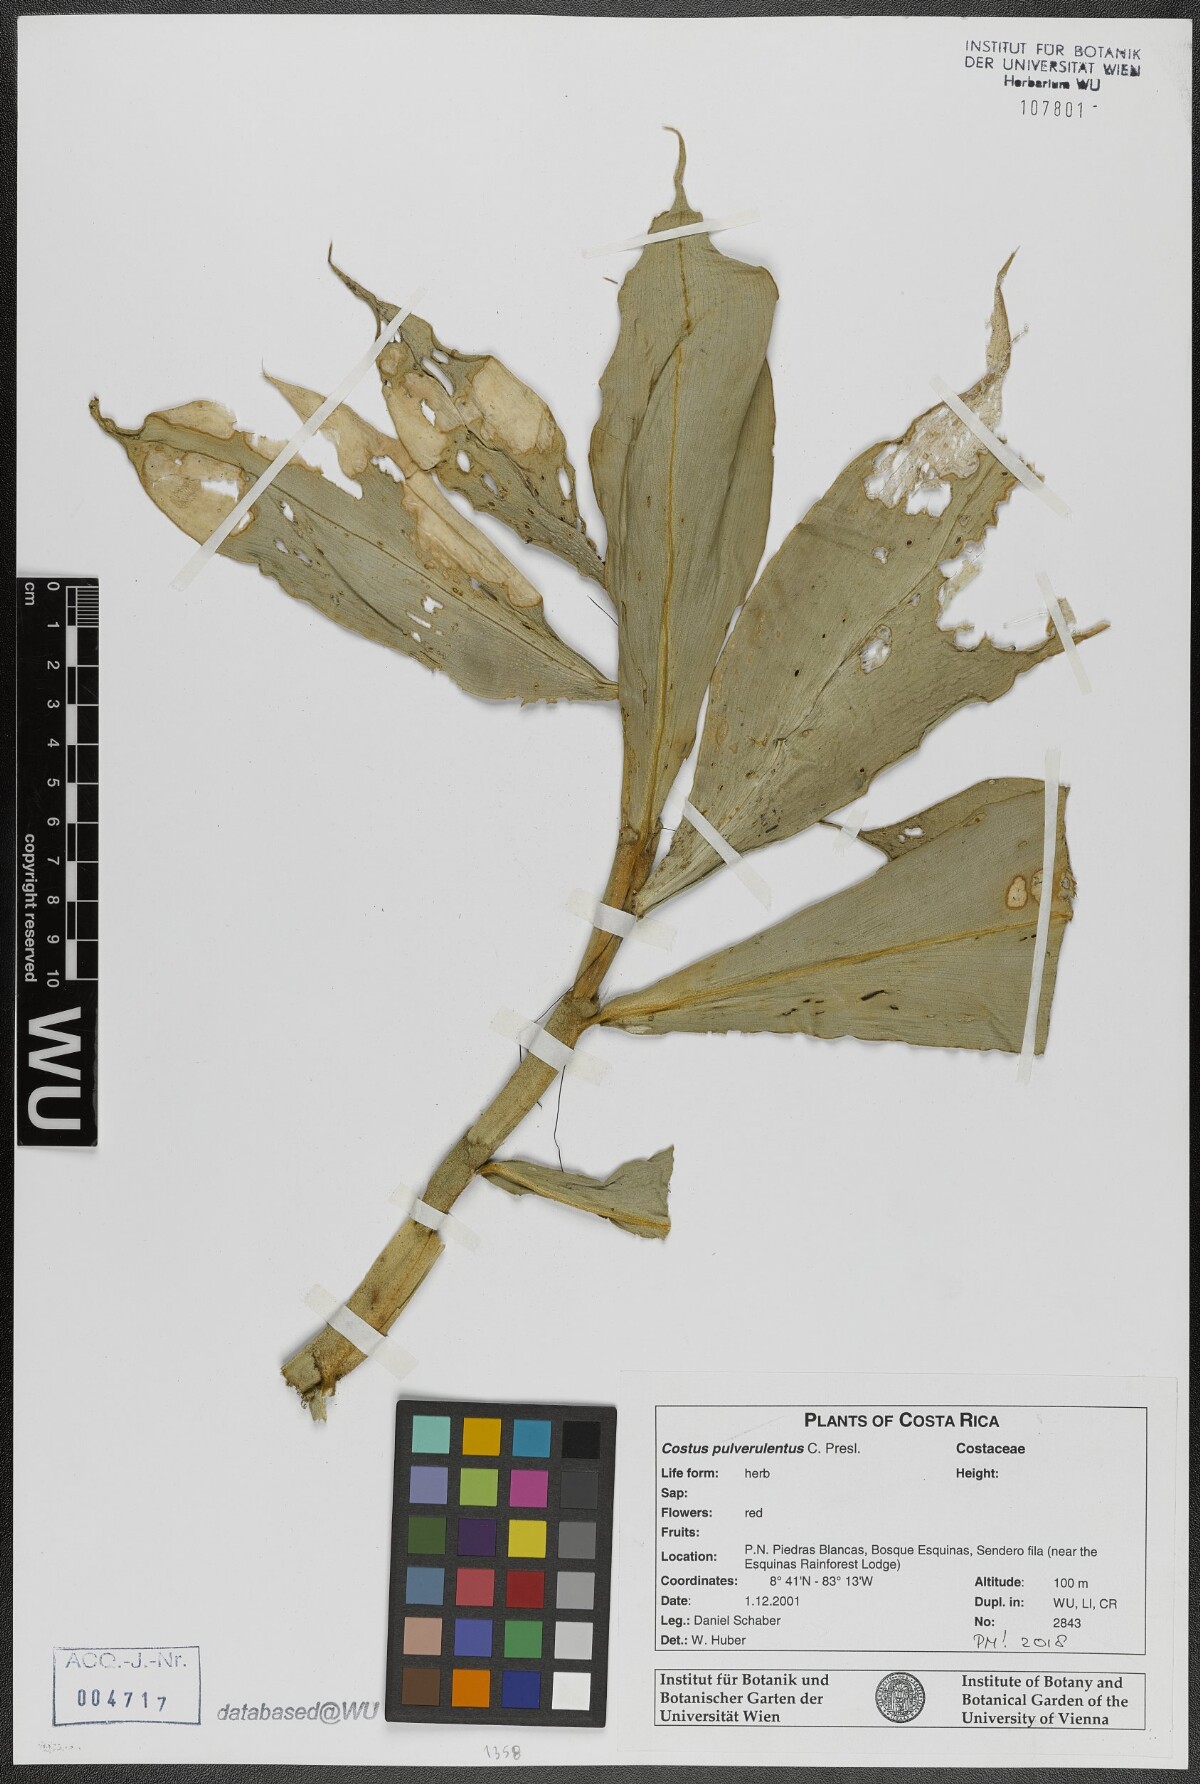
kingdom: Plantae
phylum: Tracheophyta
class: Liliopsida
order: Zingiberales
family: Costaceae
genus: Costus
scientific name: Costus pulverulentus
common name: Spiral ginger
